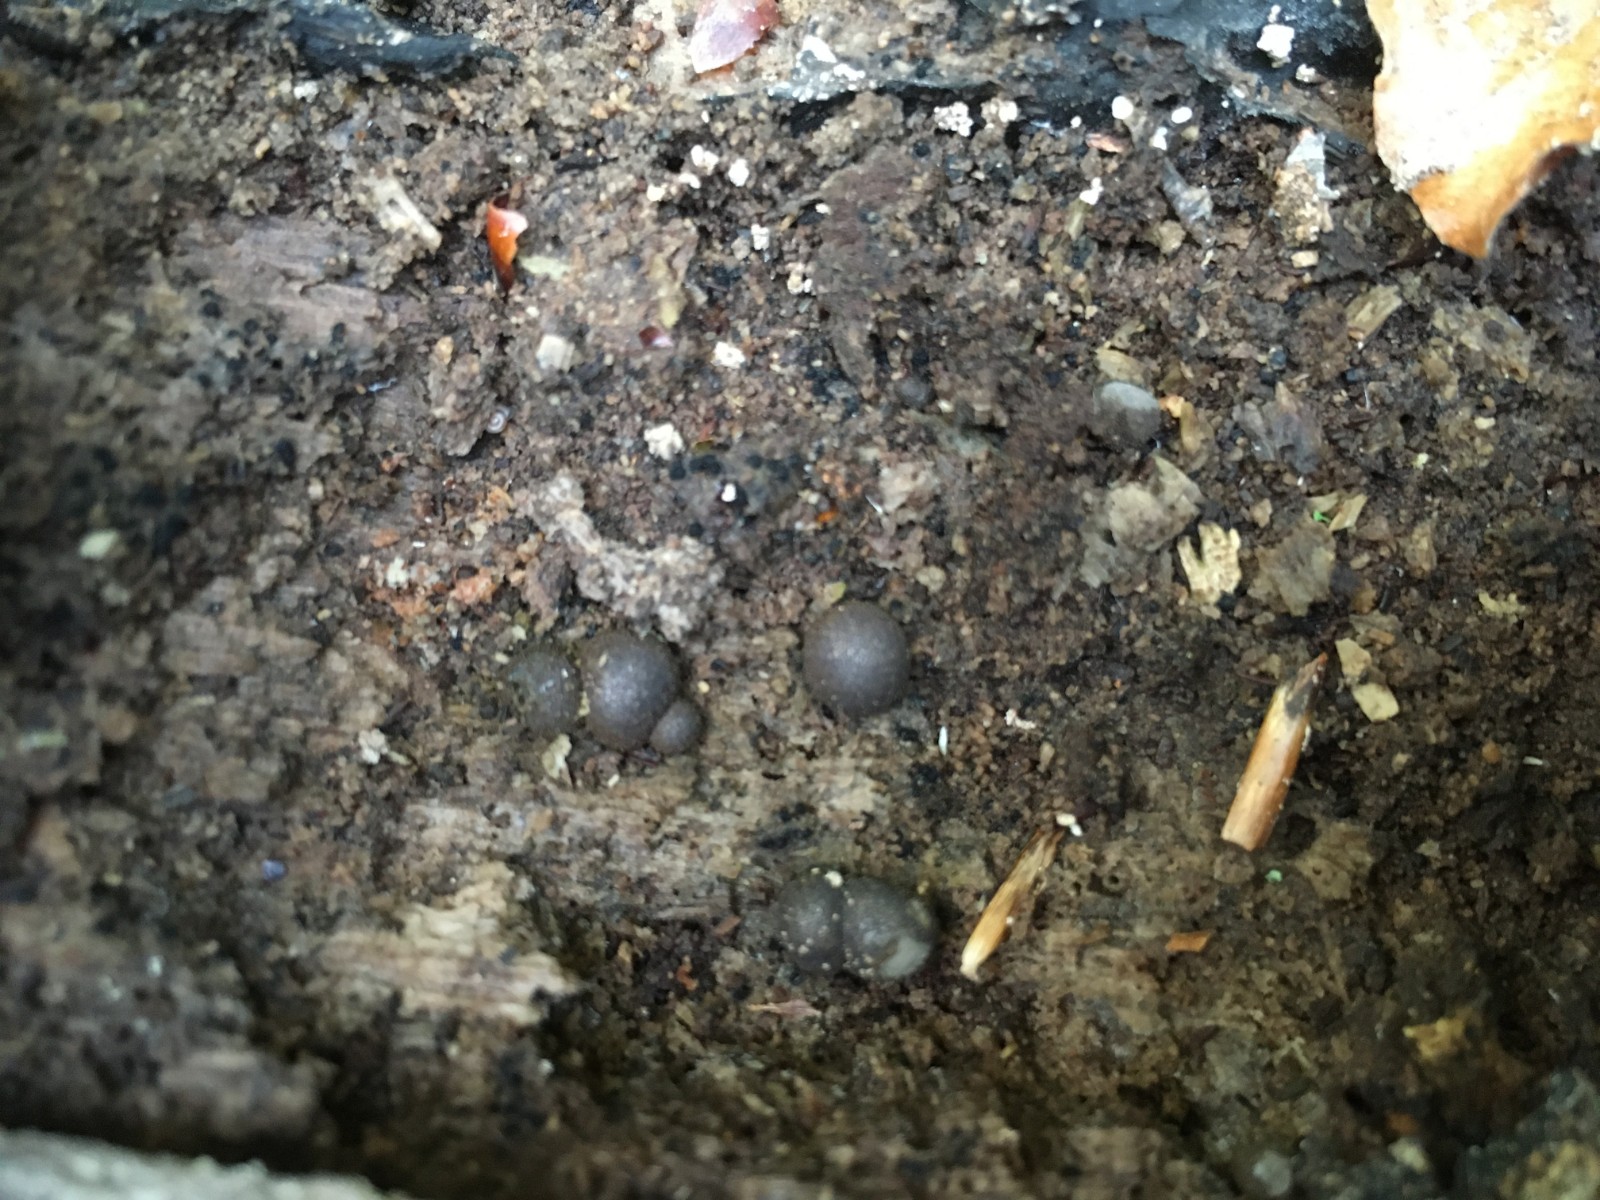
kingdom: Protozoa
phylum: Mycetozoa
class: Myxomycetes
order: Cribrariales
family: Tubiferaceae
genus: Lycogala
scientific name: Lycogala epidendrum
